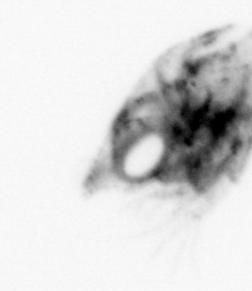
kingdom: Animalia
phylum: Arthropoda
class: Malacostraca
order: Decapoda
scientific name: Decapoda
